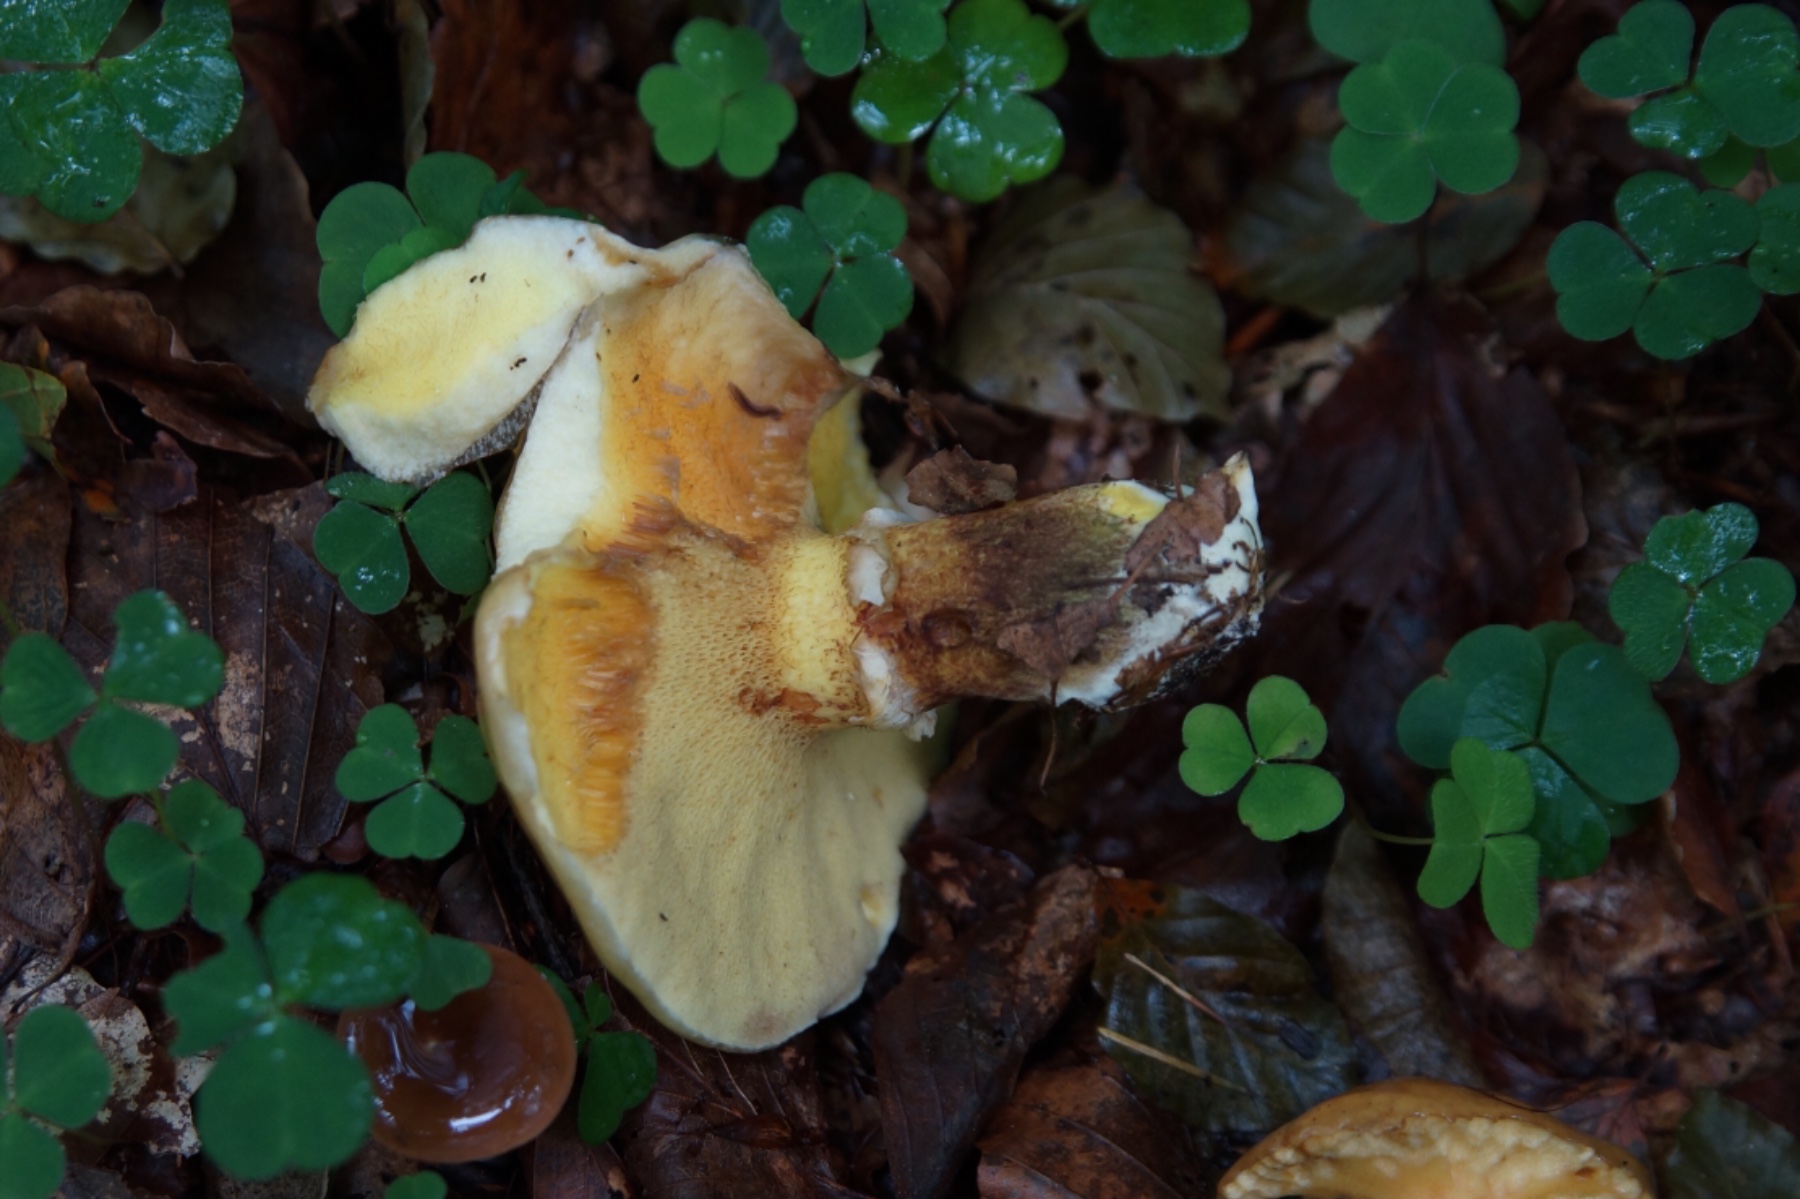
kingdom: Fungi
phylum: Basidiomycota
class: Agaricomycetes
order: Boletales
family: Suillaceae
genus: Suillus
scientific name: Suillus grevillei
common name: lærke-slimrørhat
